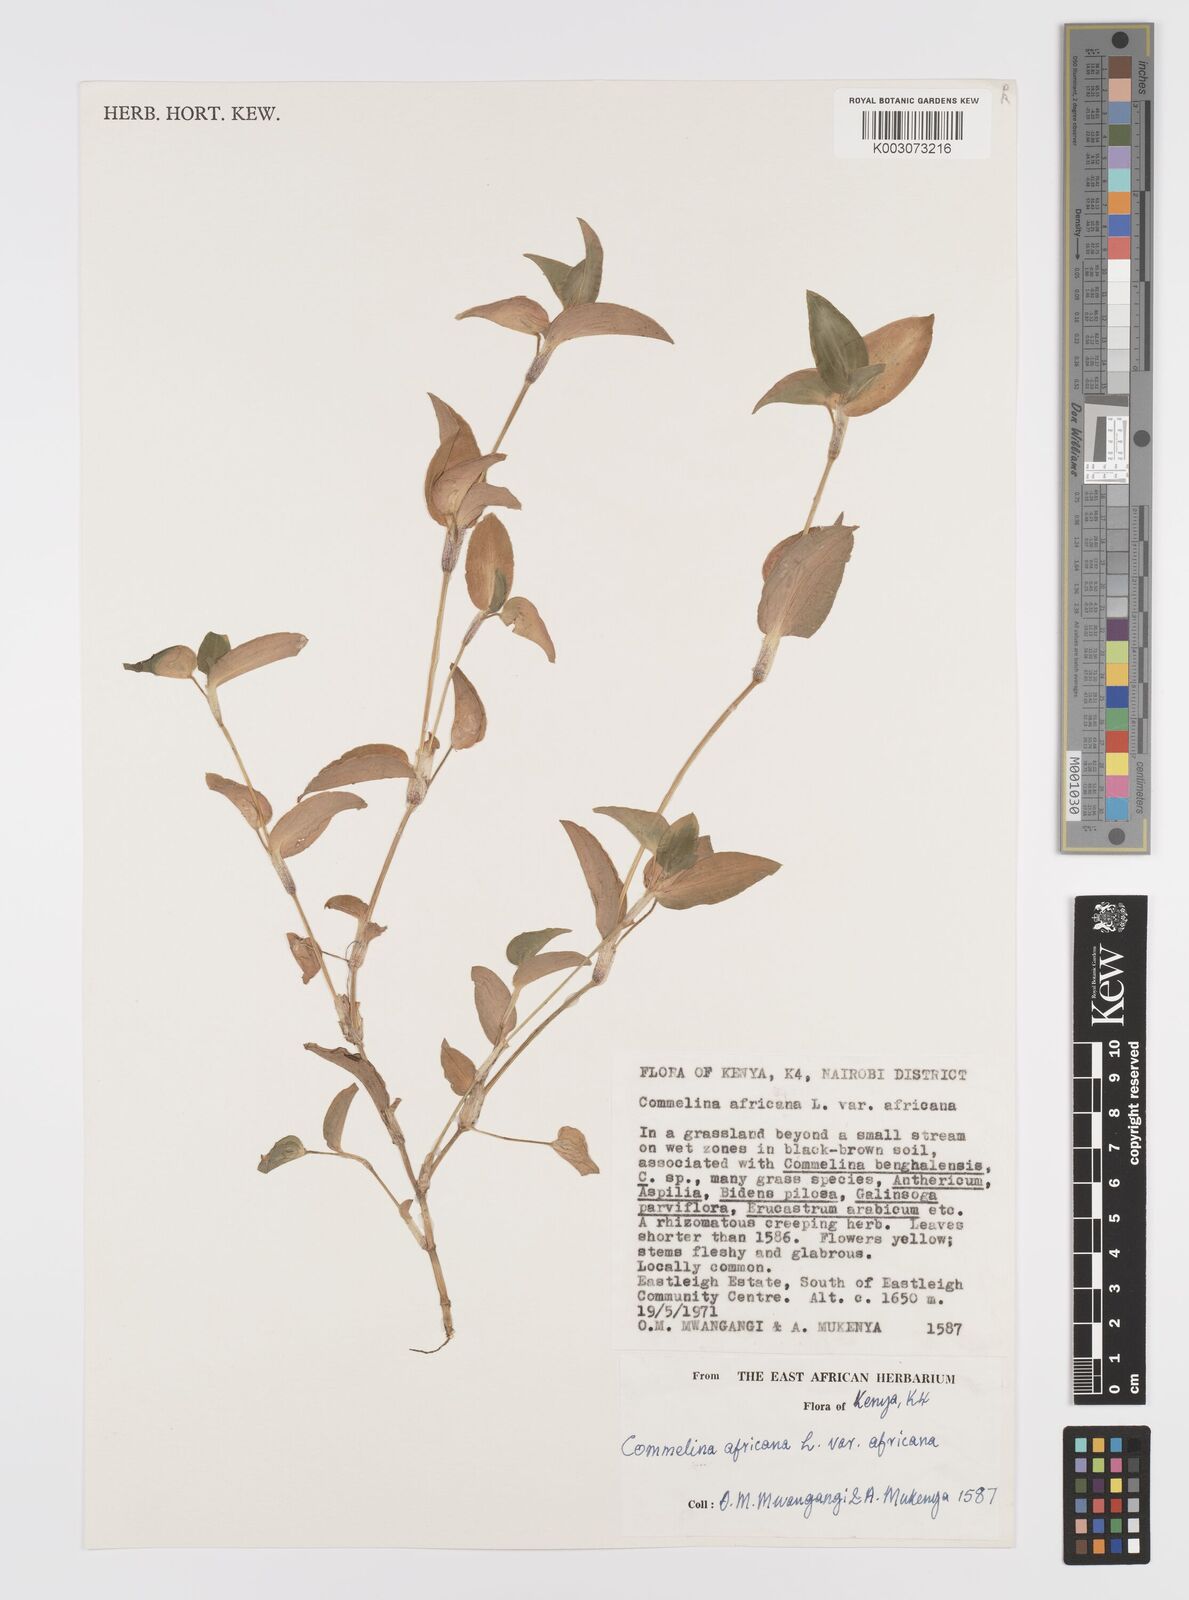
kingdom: Plantae
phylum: Tracheophyta
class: Liliopsida
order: Commelinales
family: Commelinaceae
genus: Commelina
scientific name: Commelina africana
